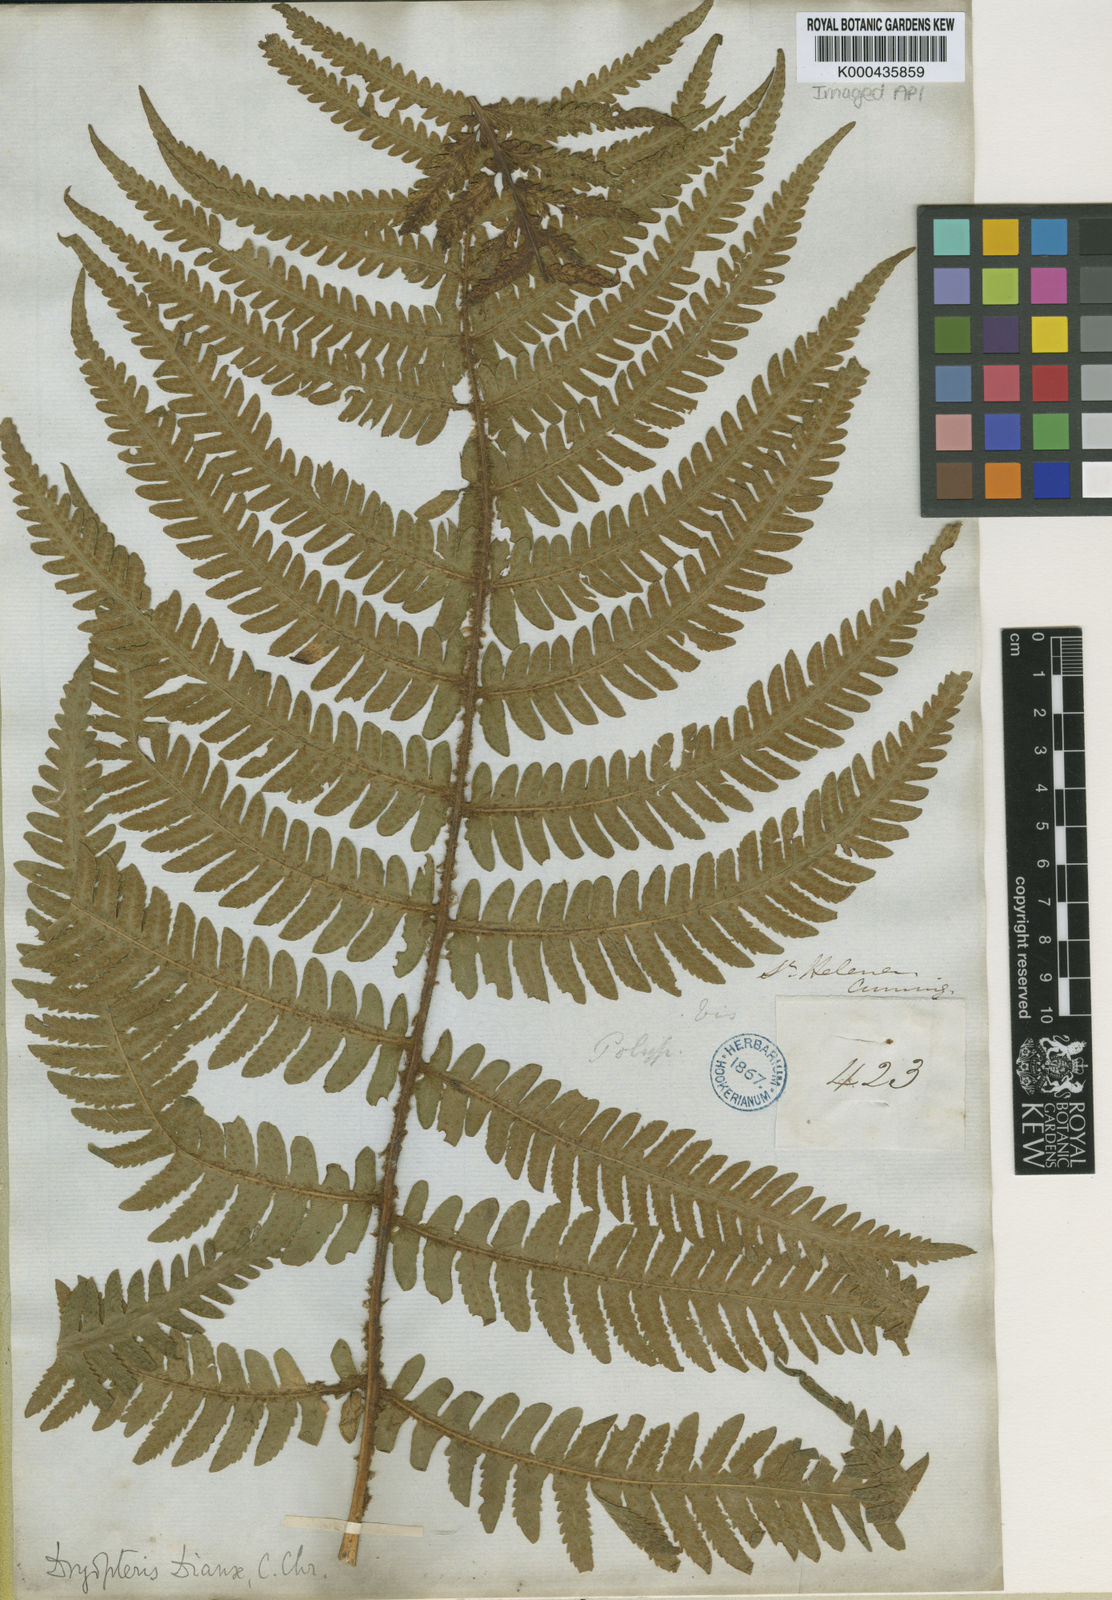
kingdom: Plantae
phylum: Tracheophyta
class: Polypodiopsida
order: Polypodiales
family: Thelypteridaceae
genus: Pseudophegopteris
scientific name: Pseudophegopteris dianae
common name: Brown-scale fern
